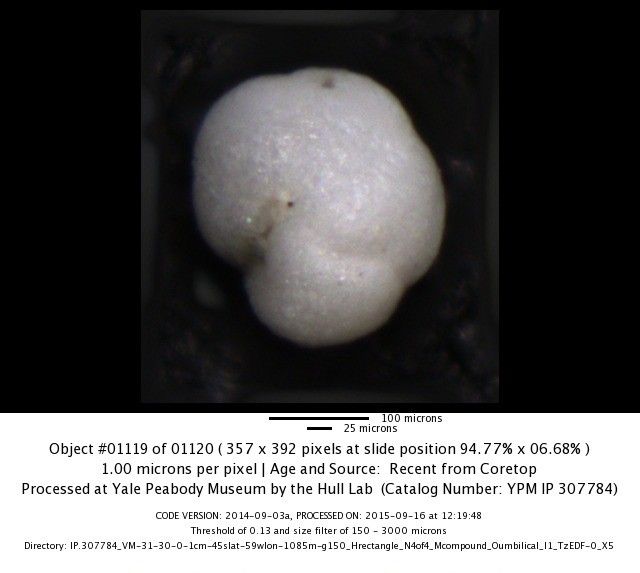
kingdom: Chromista
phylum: Foraminifera
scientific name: Foraminifera
